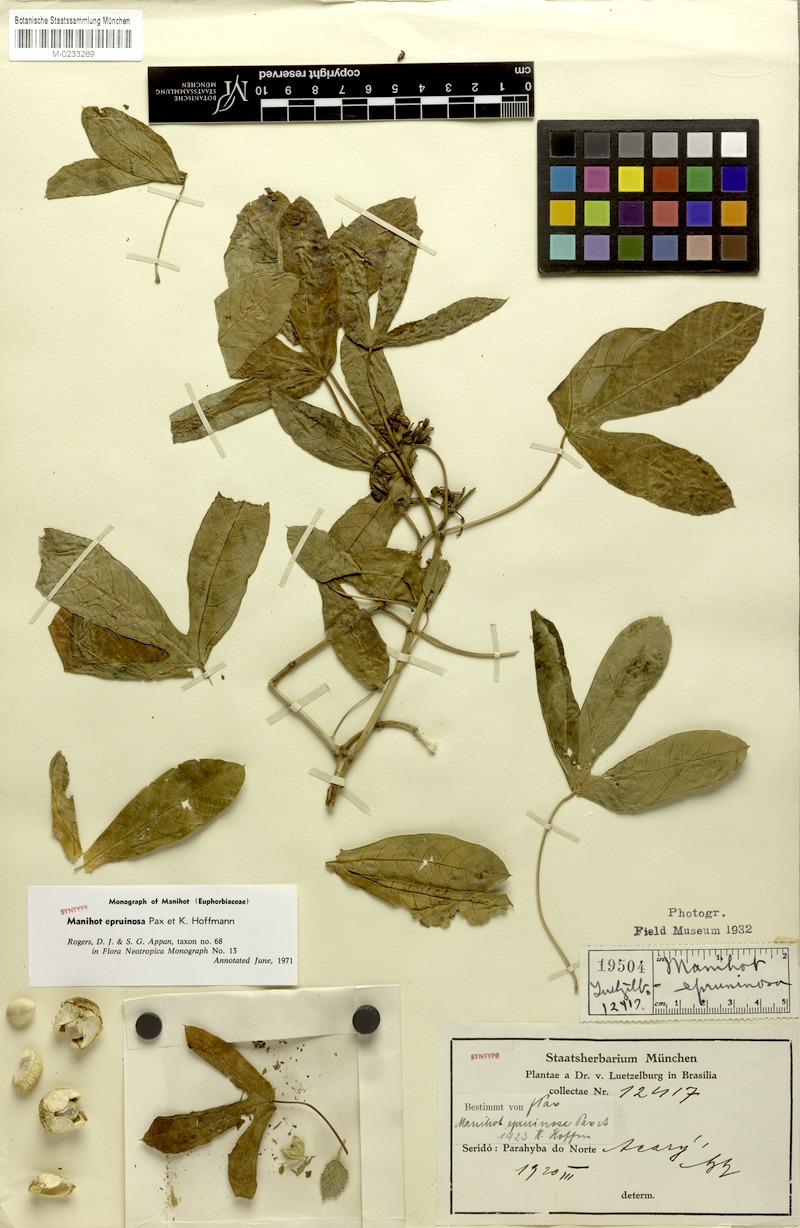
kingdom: Plantae
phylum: Tracheophyta
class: Magnoliopsida
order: Malpighiales
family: Euphorbiaceae
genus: Manihot
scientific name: Manihot epruinosa
